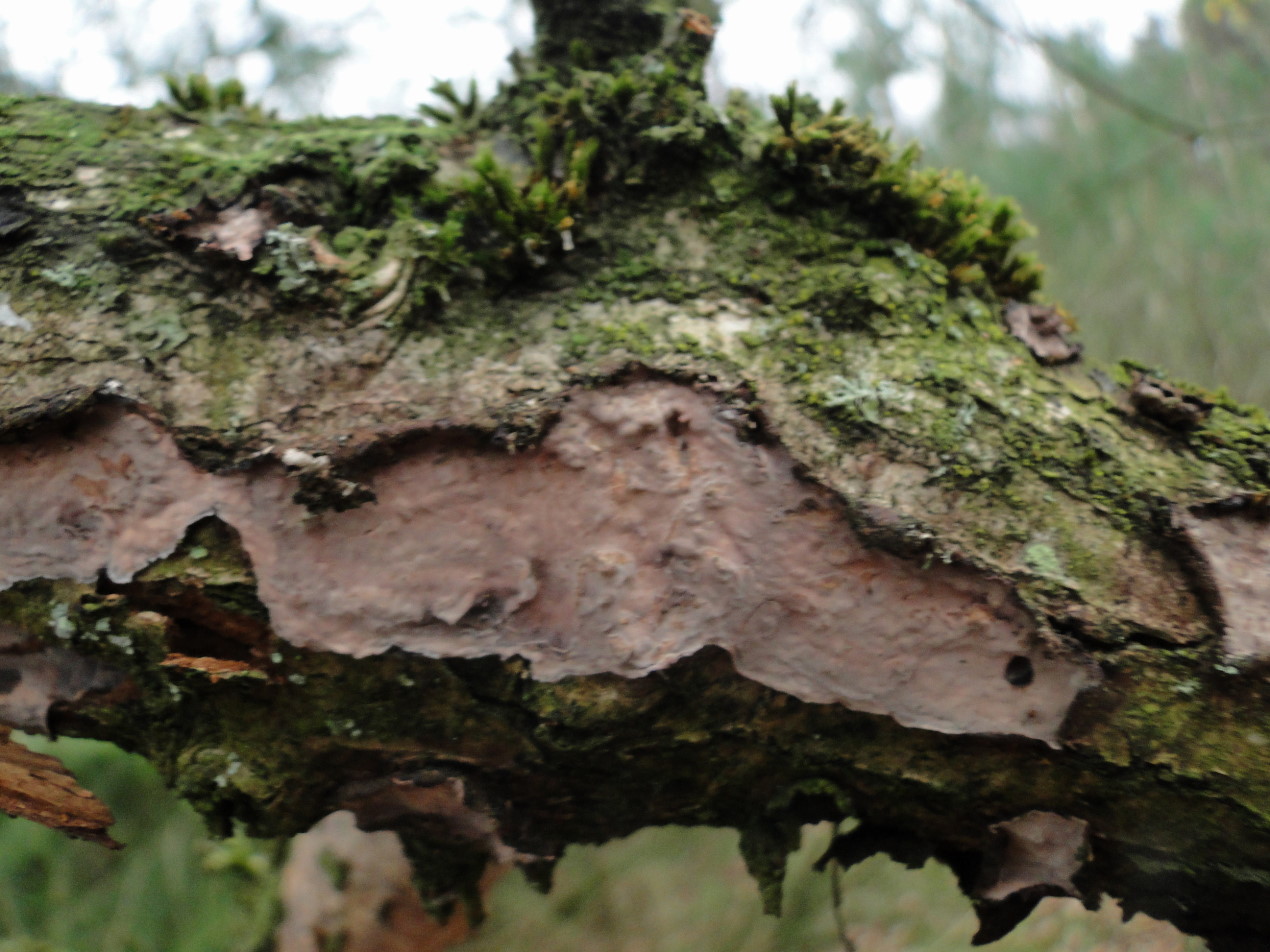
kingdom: Fungi
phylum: Basidiomycota
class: Agaricomycetes
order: Russulales
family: Peniophoraceae
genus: Peniophora
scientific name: Peniophora quercina
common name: ege-voksskind
